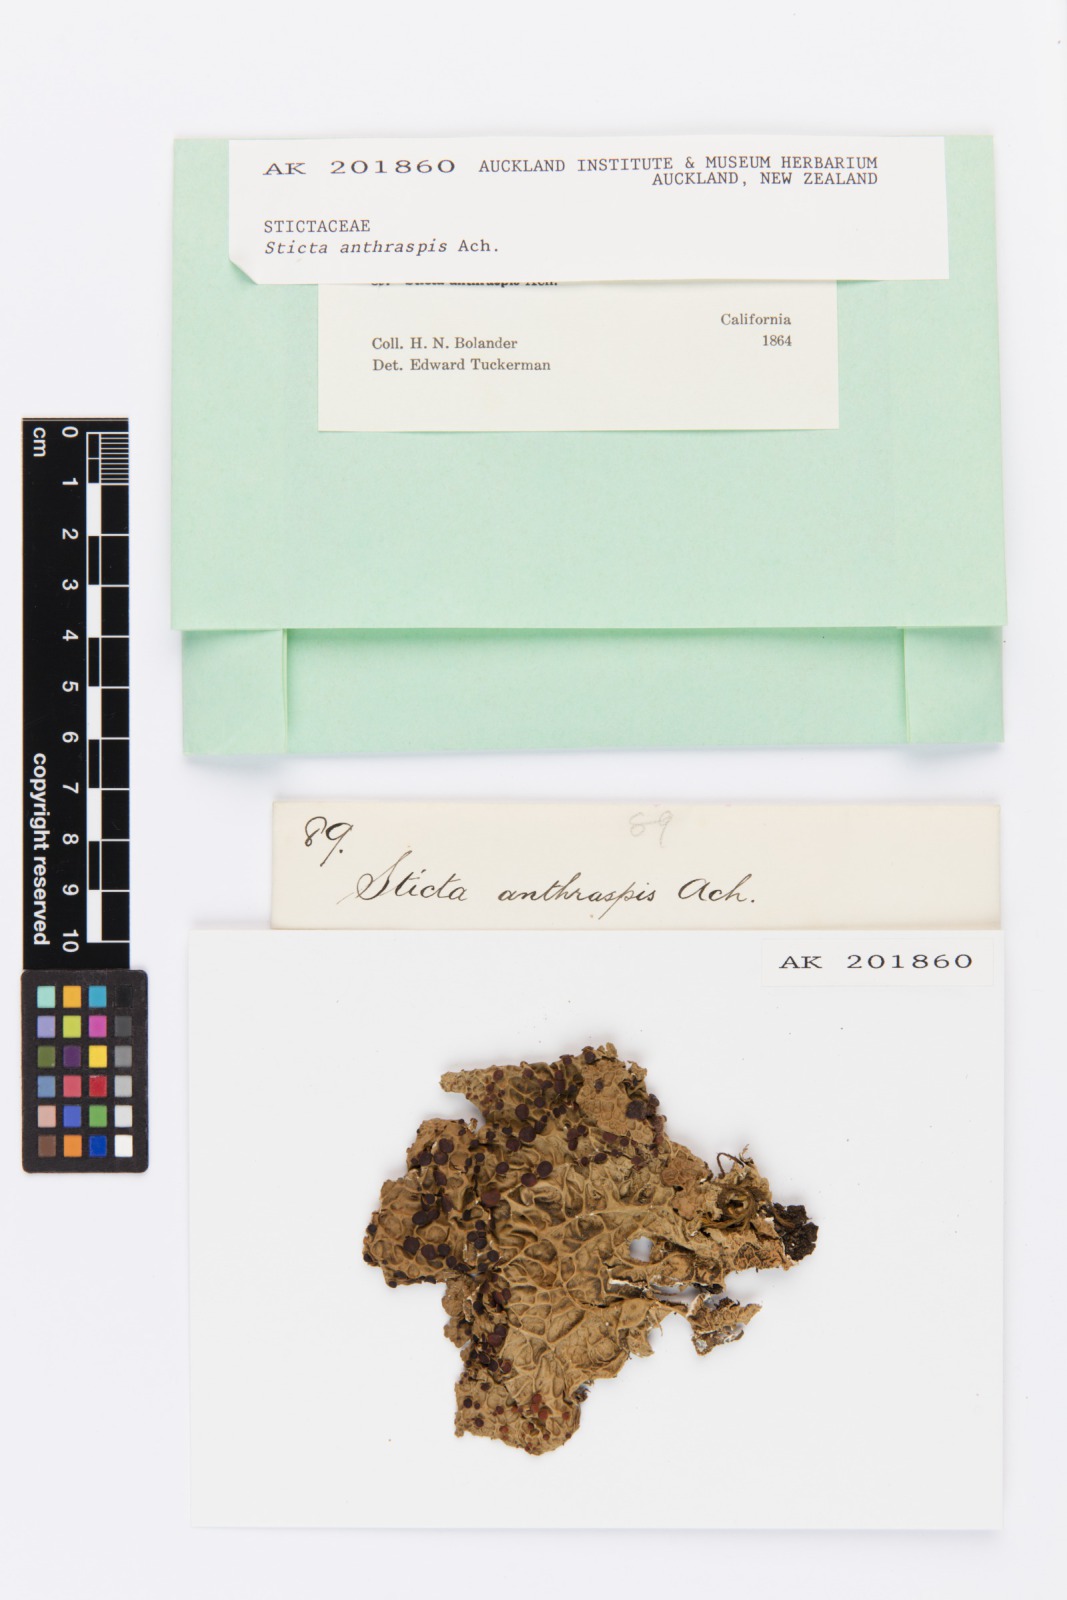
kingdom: Fungi
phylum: Ascomycota
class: Lecanoromycetes
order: Peltigerales
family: Lobariaceae
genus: Lobaria
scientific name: Lobaria anthraspis
